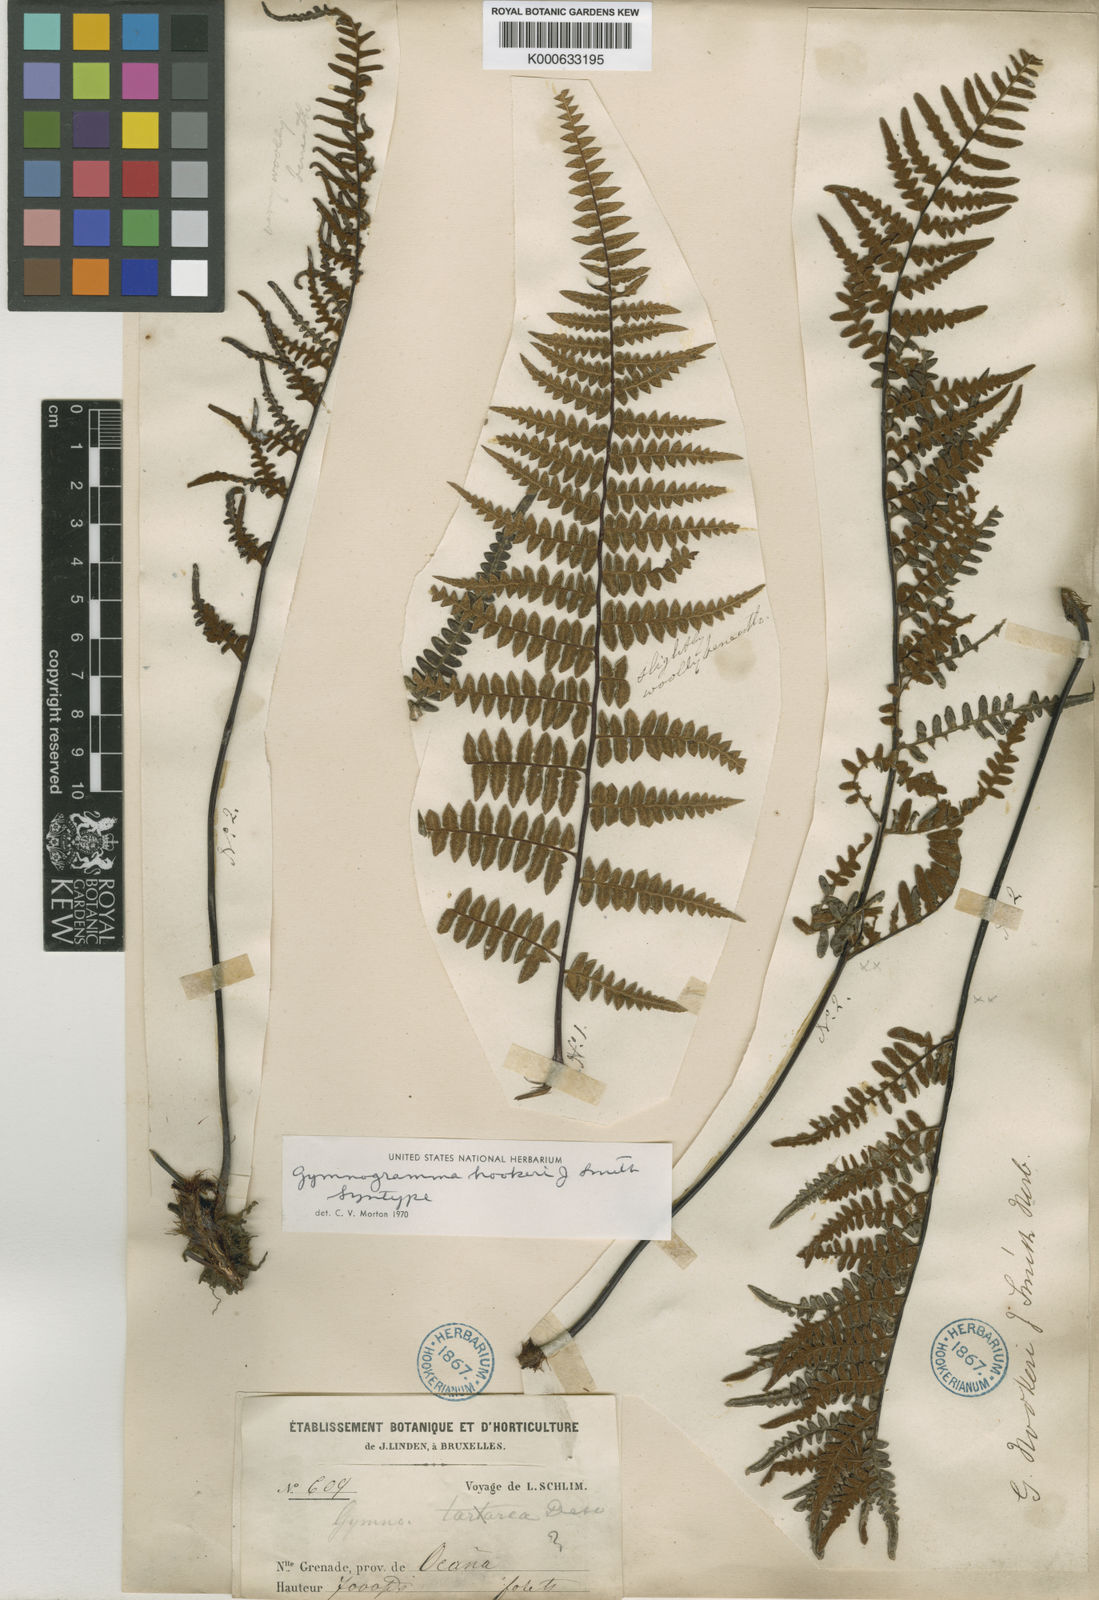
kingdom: Plantae
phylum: Tracheophyta
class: Polypodiopsida
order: Polypodiales
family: Pteridaceae
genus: Pityrogramma
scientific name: Pityrogramma ochracea
